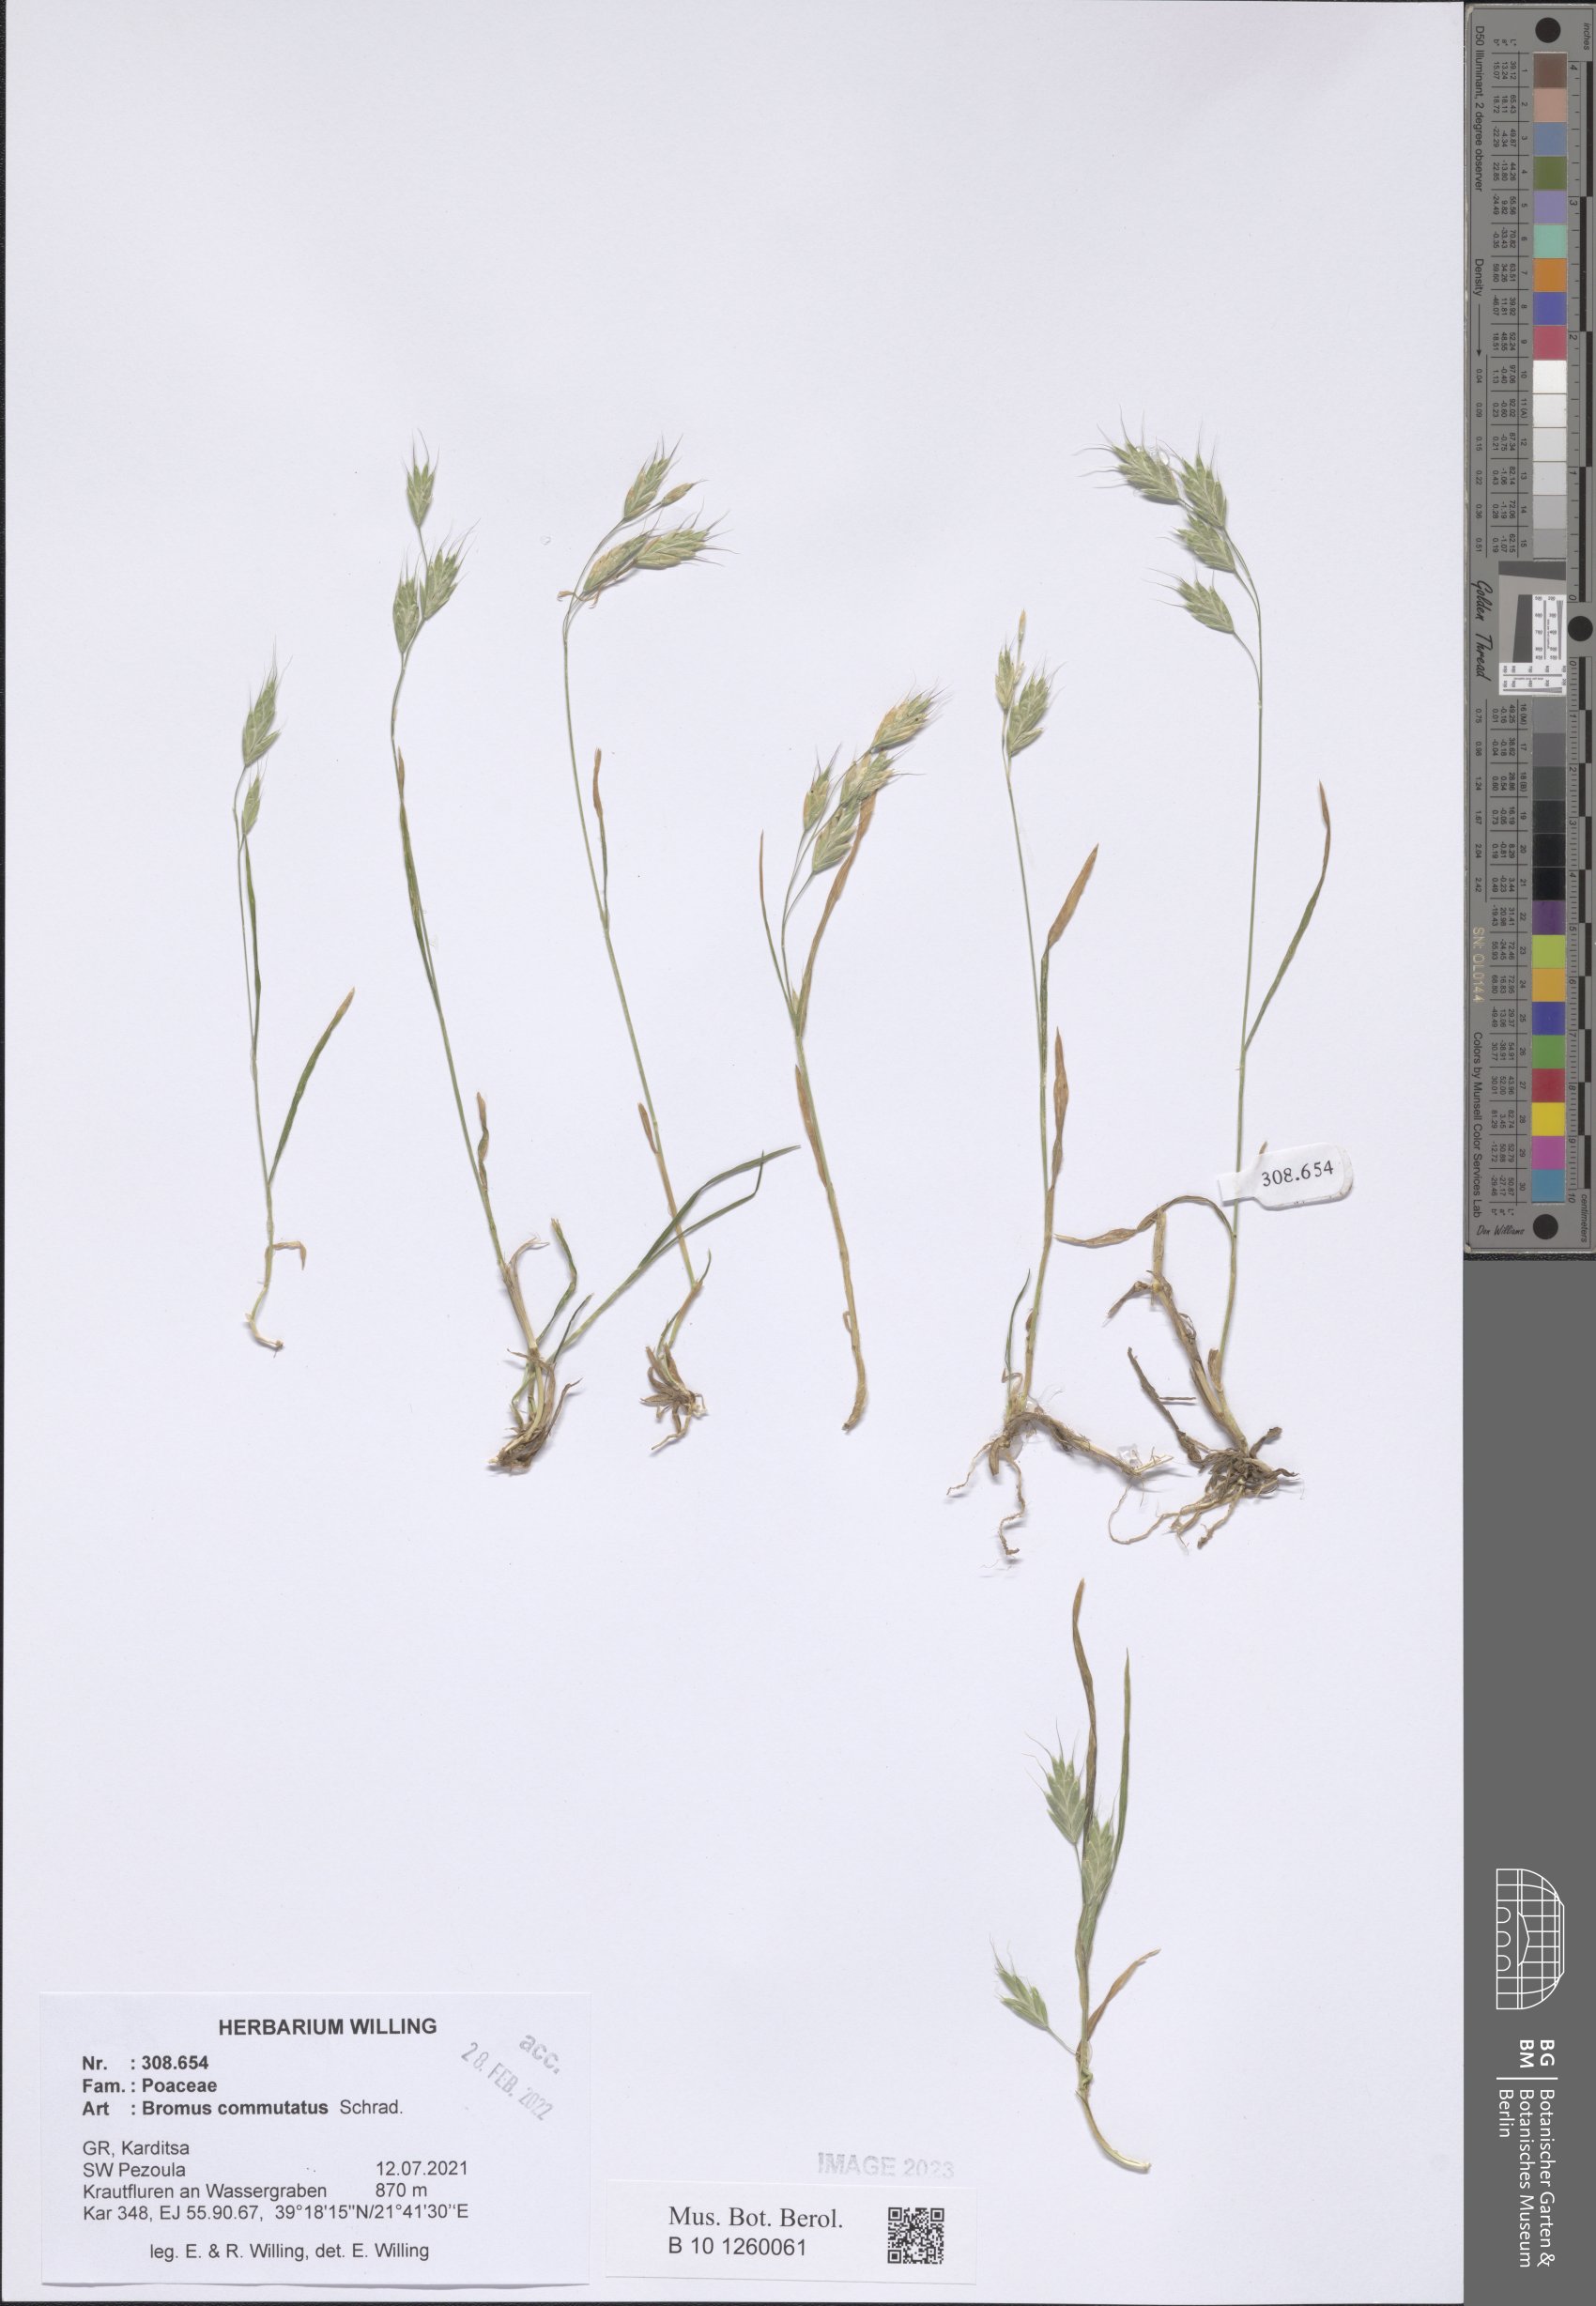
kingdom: Plantae
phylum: Tracheophyta
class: Liliopsida
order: Poales
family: Poaceae
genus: Bromus
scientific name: Bromus commutatus
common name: Meadow brome
